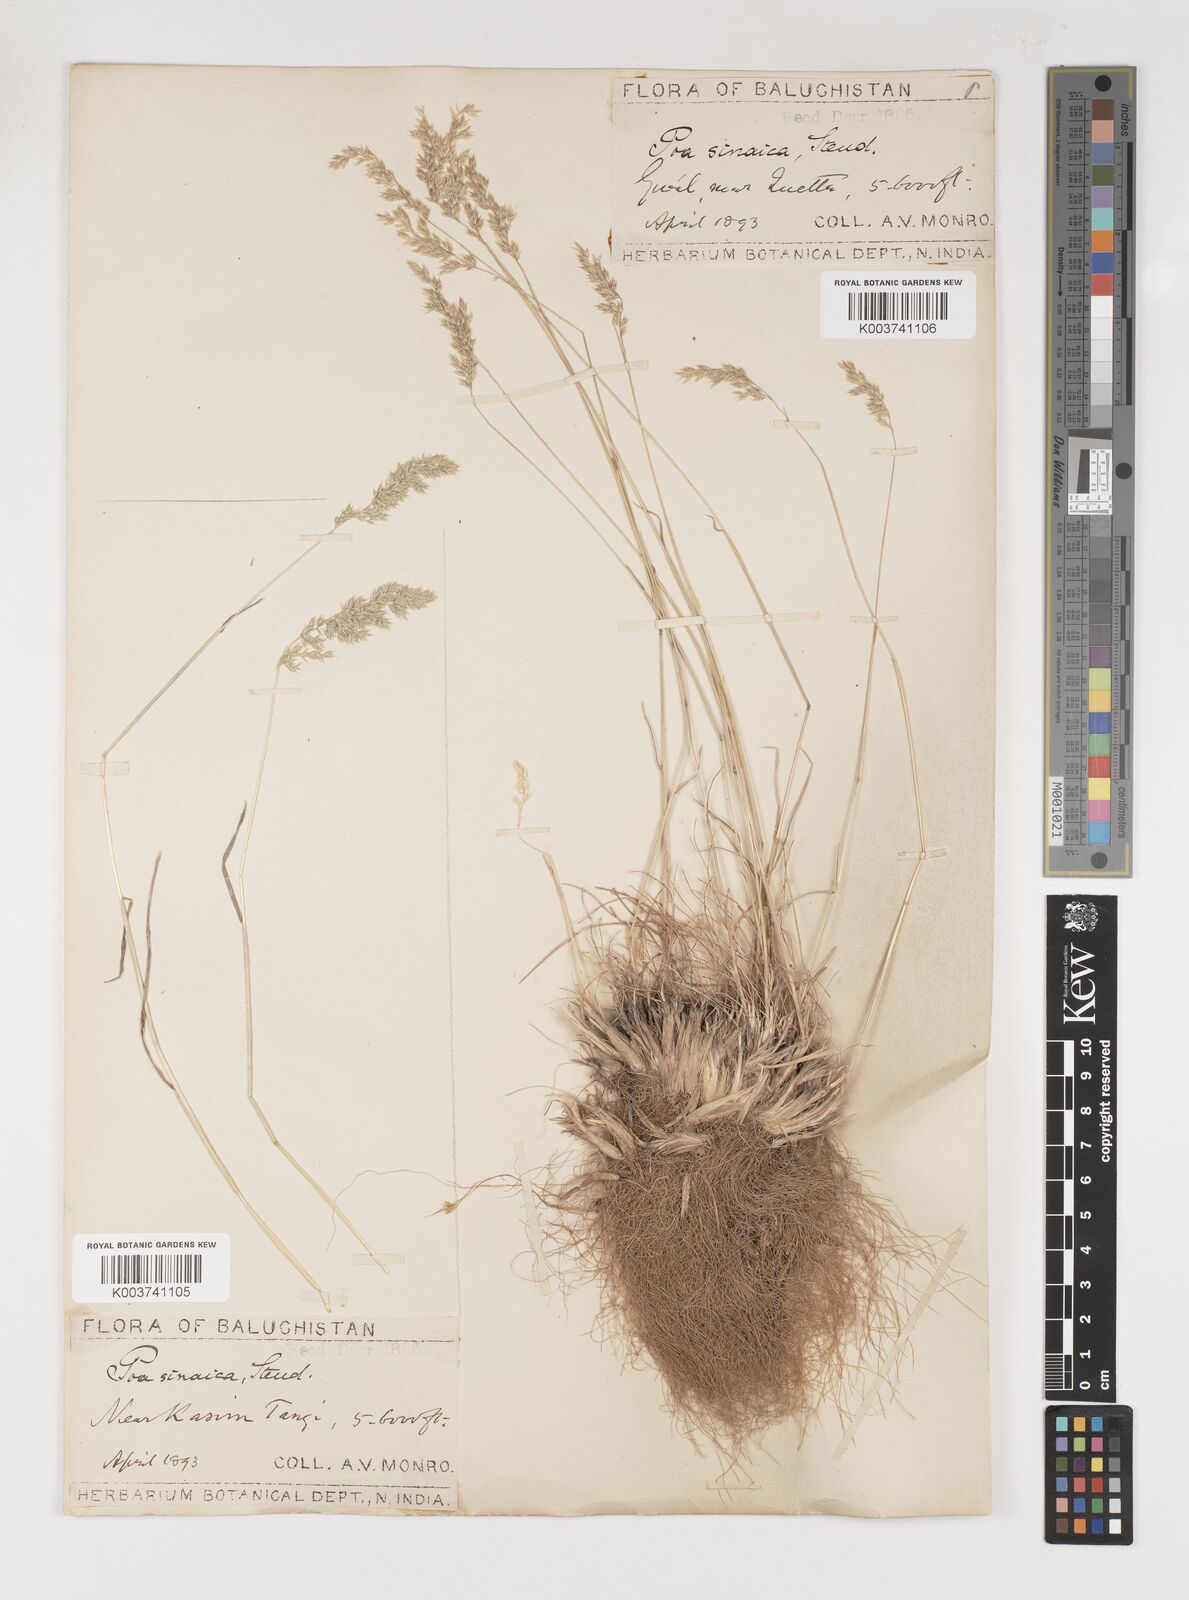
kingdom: Plantae
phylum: Tracheophyta
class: Liliopsida
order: Poales
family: Poaceae
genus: Poa
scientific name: Poa sinaica
